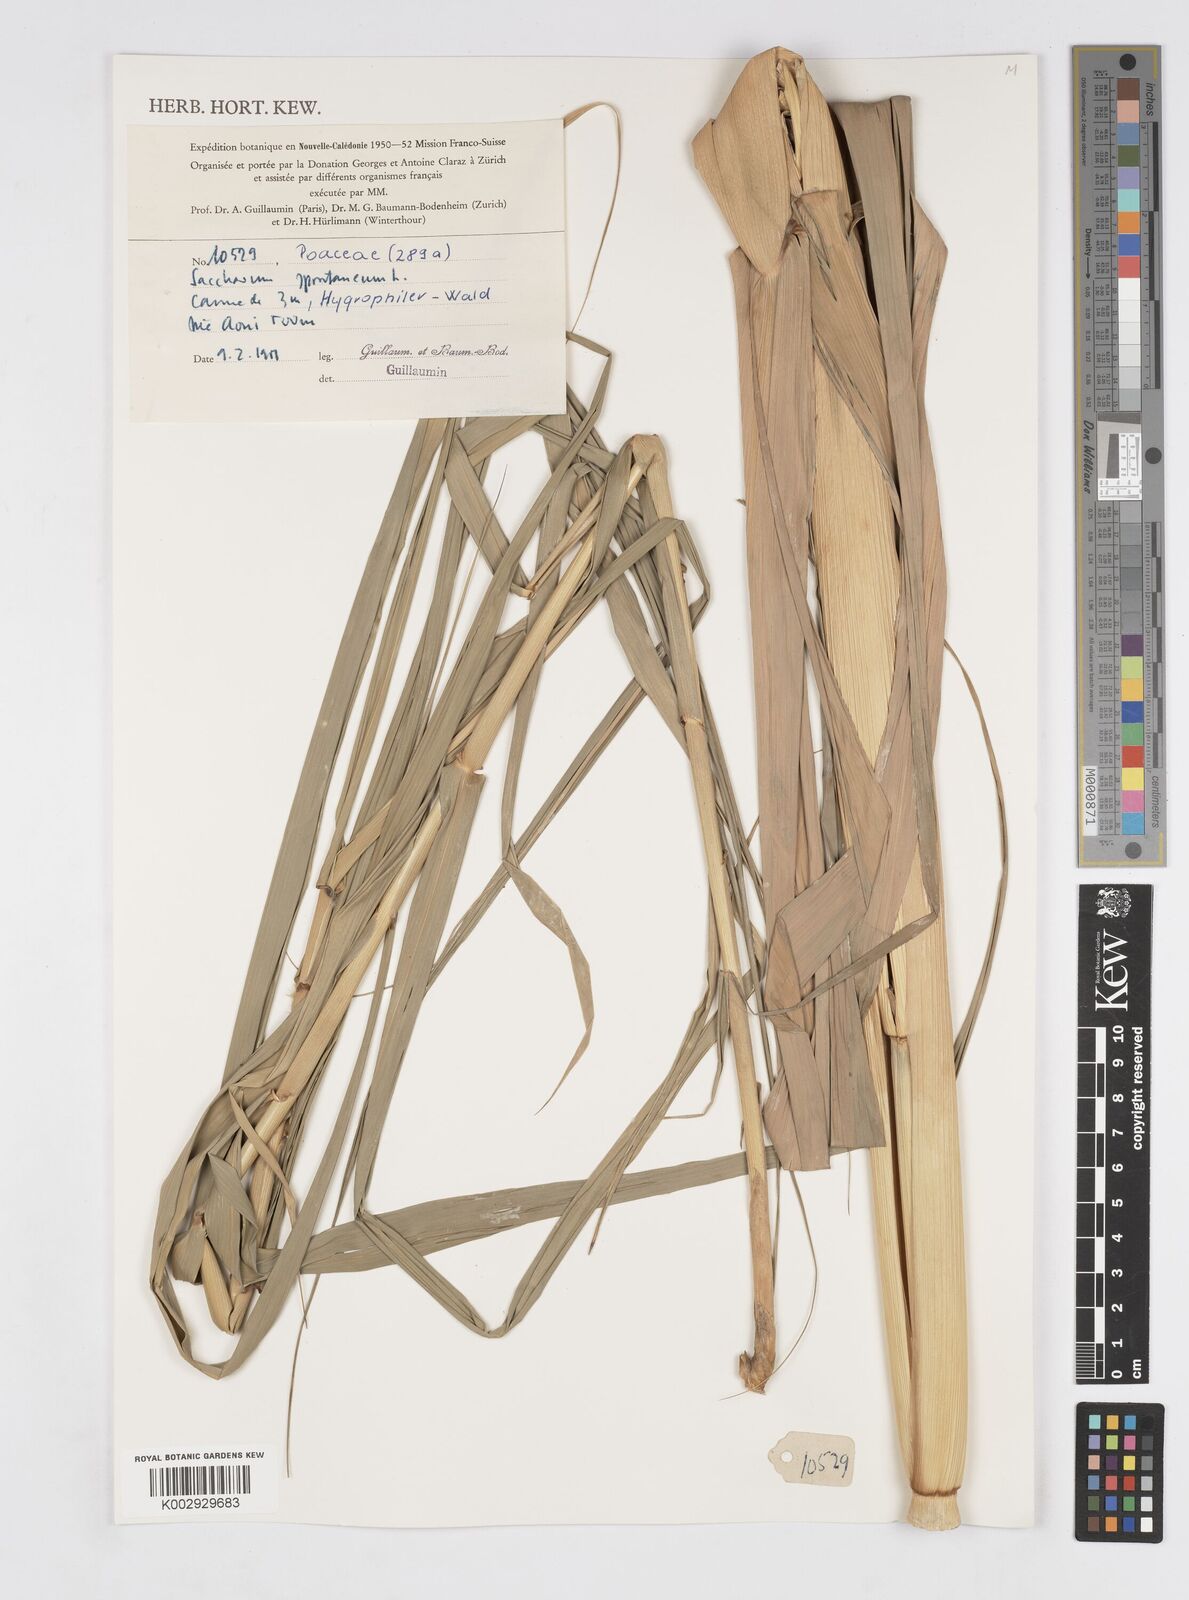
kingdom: Plantae
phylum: Tracheophyta
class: Liliopsida
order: Poales
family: Poaceae
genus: Saccharum
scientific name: Saccharum spontaneum
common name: Wild sugarcane
